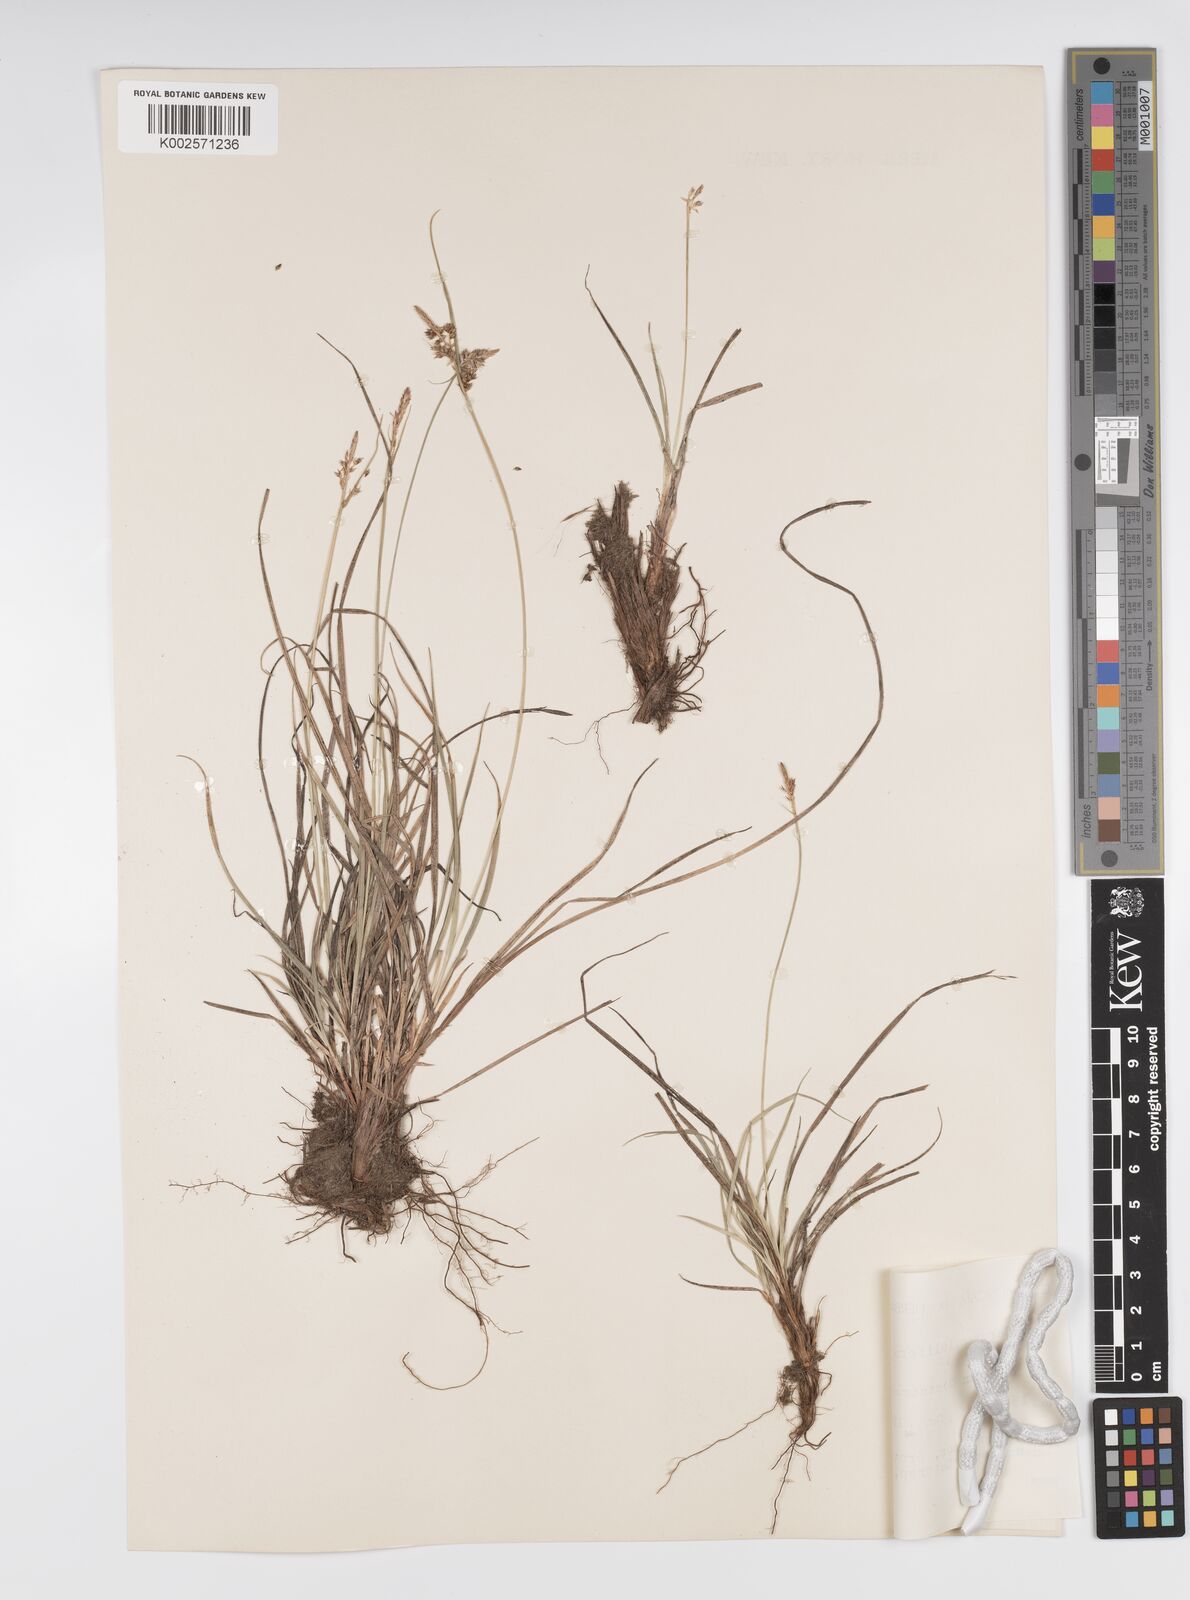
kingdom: Plantae
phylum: Tracheophyta
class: Liliopsida
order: Poales
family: Cyperaceae
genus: Carex
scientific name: Carex pilulifera
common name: Pill sedge
